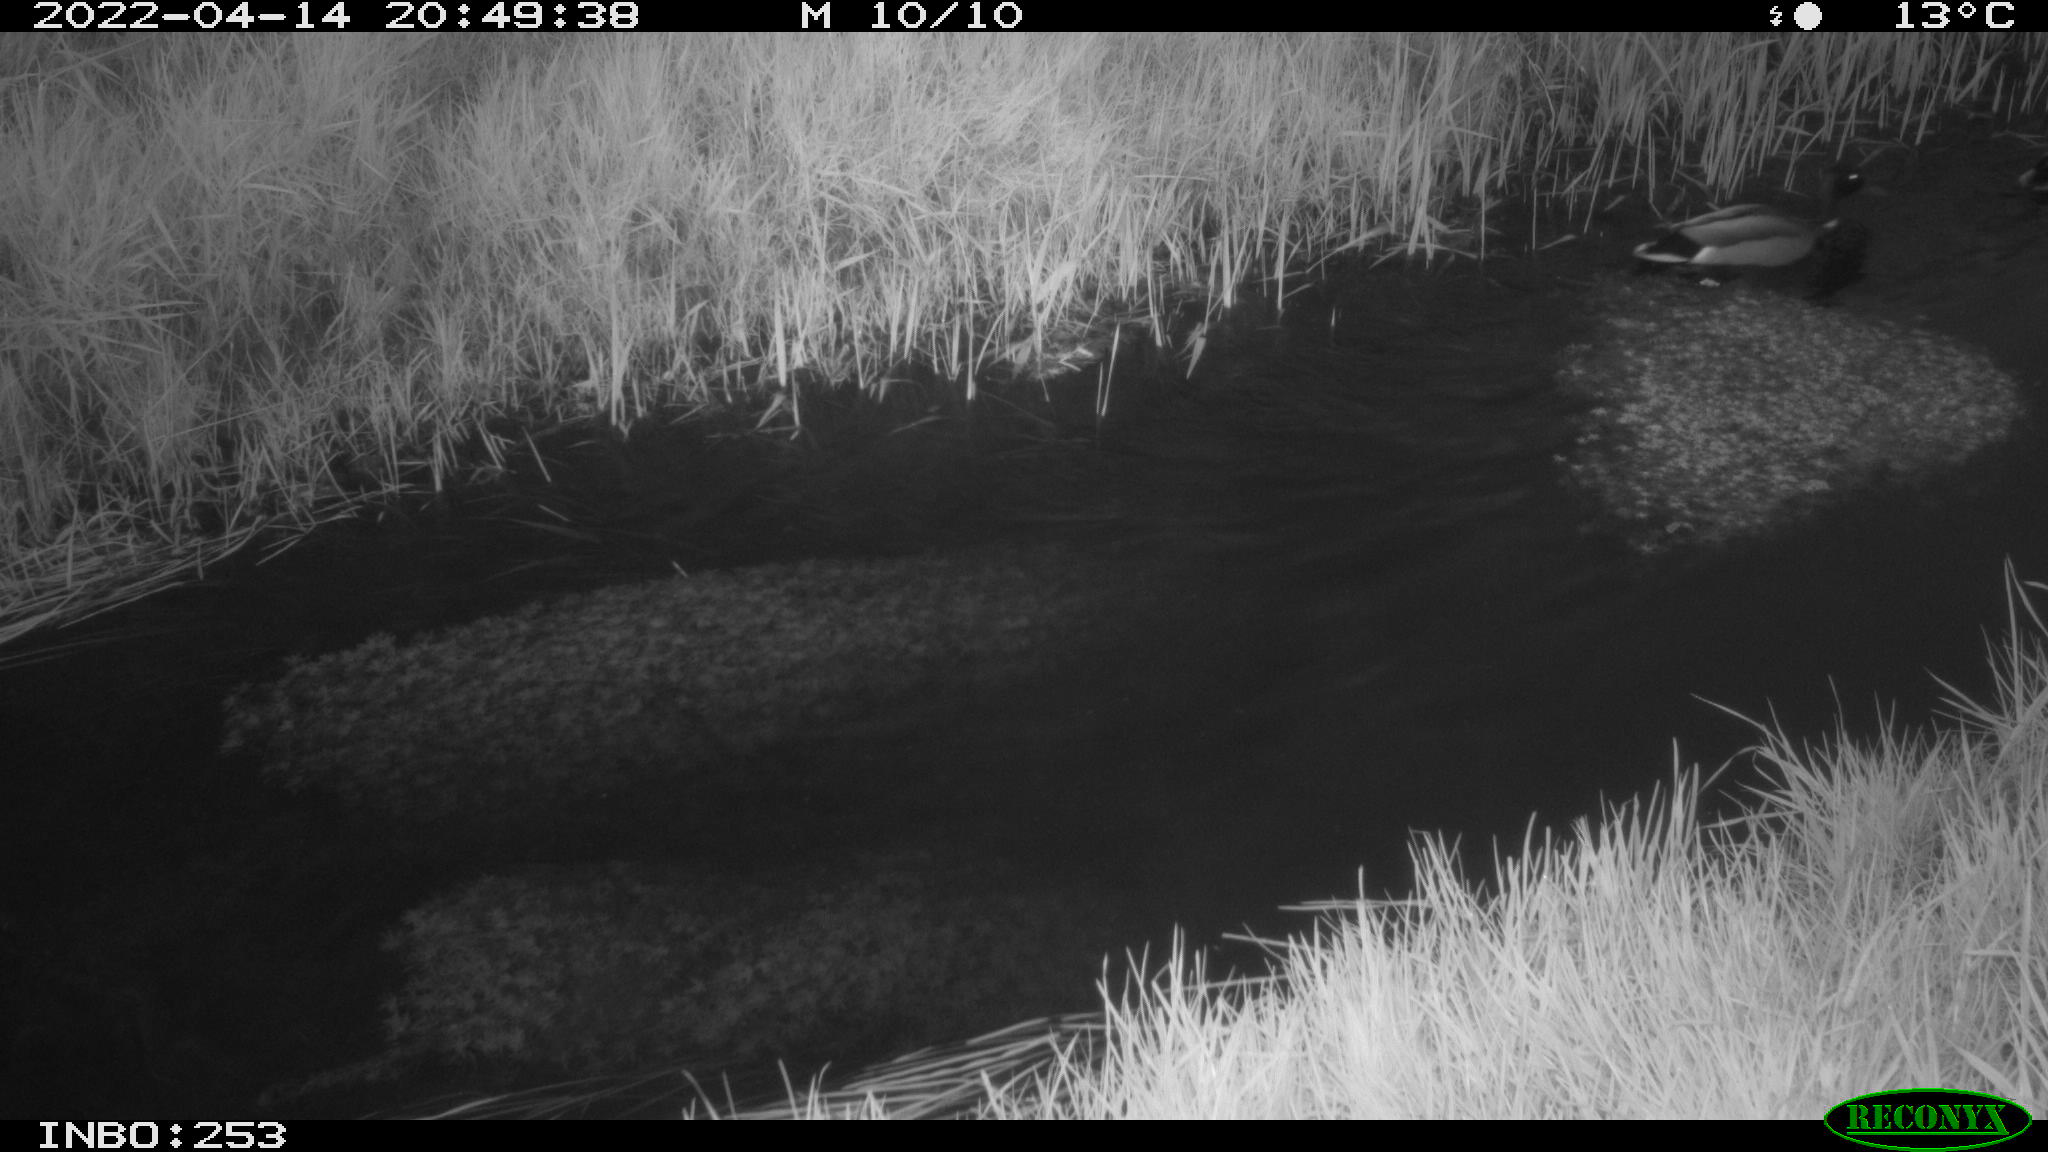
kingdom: Animalia
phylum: Chordata
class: Aves
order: Anseriformes
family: Anatidae
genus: Anas
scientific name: Anas platyrhynchos
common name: Mallard
